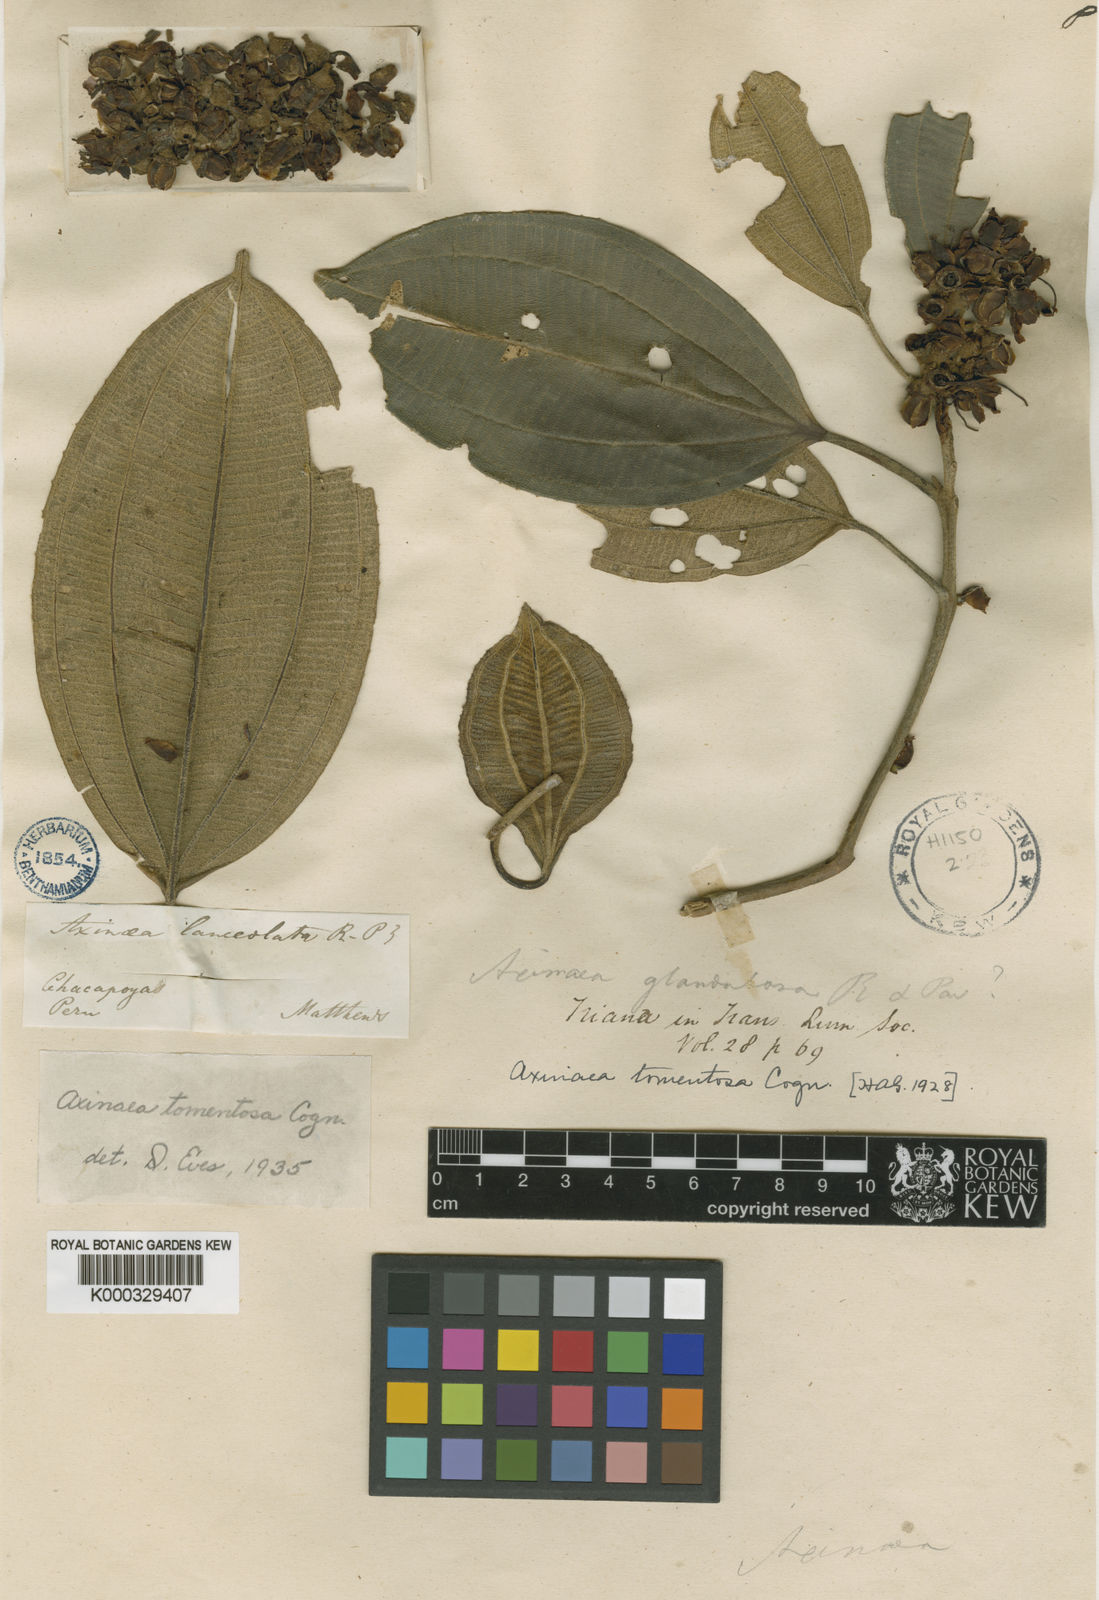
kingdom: Plantae
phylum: Tracheophyta
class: Magnoliopsida
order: Myrtales
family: Melastomataceae
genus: Axinaea
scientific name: Axinaea tomentosa
